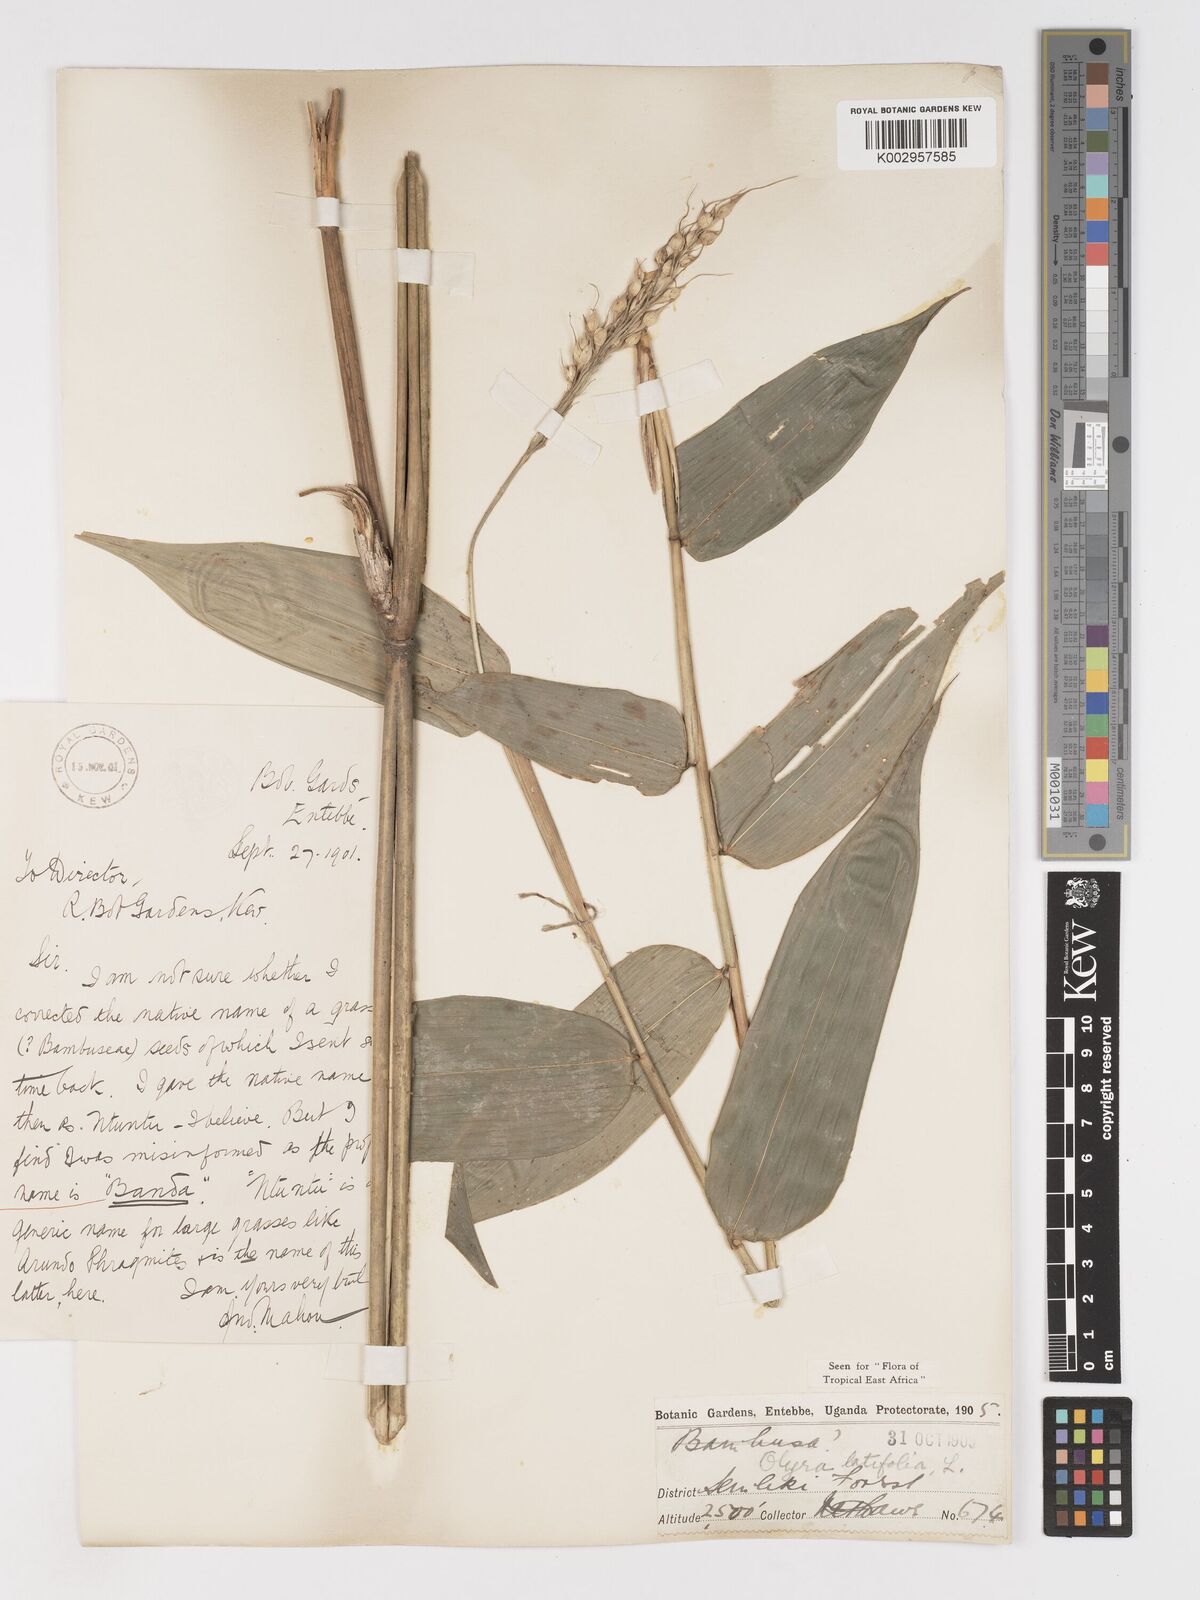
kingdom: Plantae
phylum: Tracheophyta
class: Liliopsida
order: Poales
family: Poaceae
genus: Olyra
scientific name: Olyra latifolia
